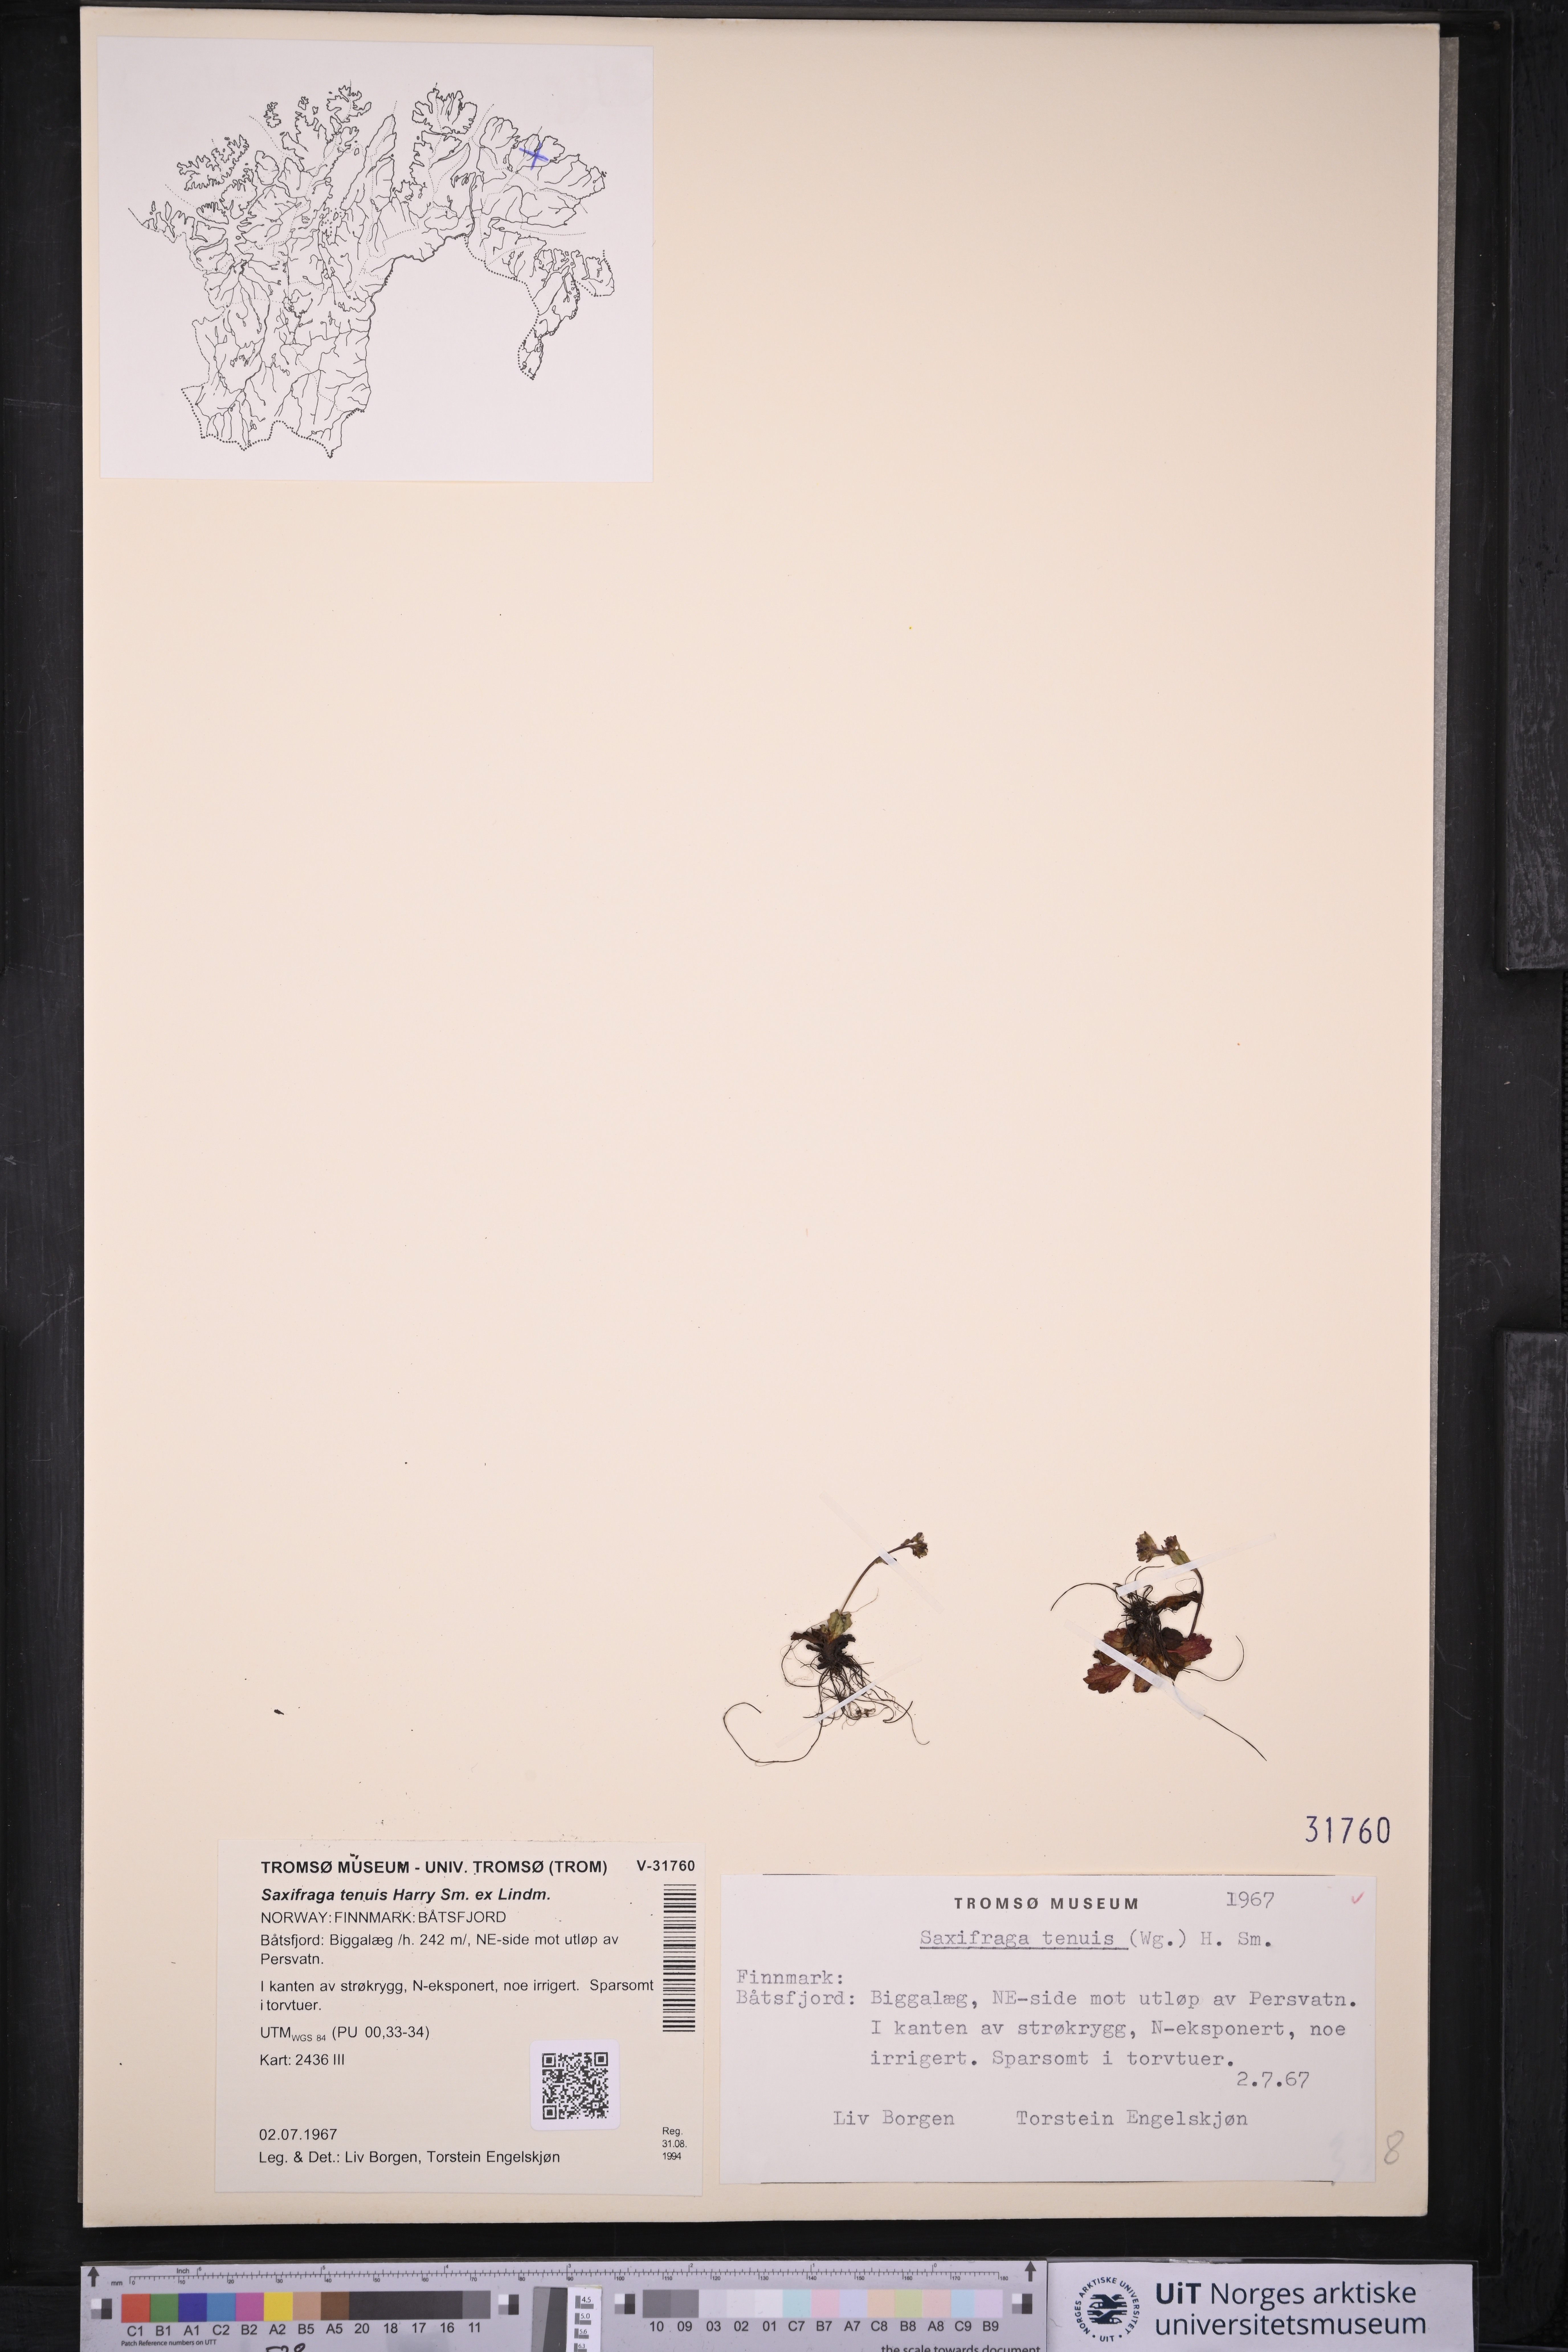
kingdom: Plantae
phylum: Tracheophyta
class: Magnoliopsida
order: Saxifragales
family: Saxifragaceae
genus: Micranthes
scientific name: Micranthes tenuis
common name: Ottertail pass saxifrage
